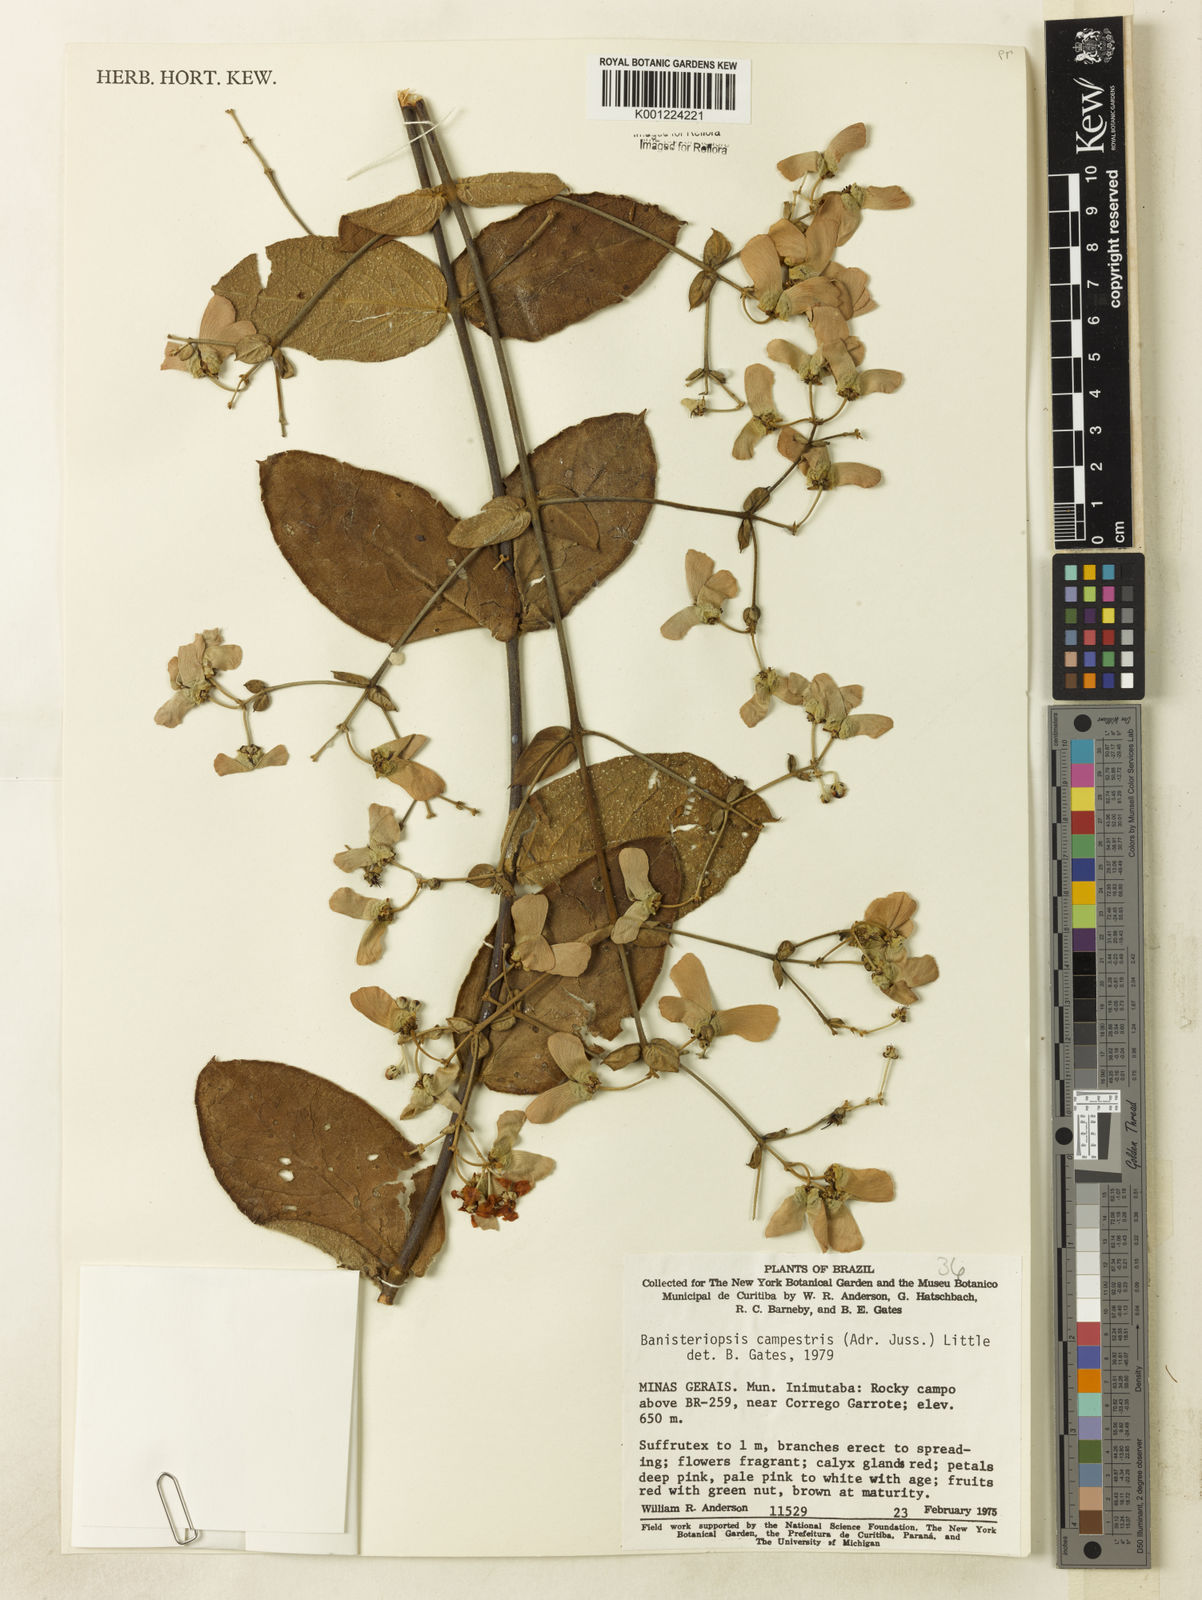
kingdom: Plantae
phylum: Tracheophyta
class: Magnoliopsida
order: Malpighiales
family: Malpighiaceae
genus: Banisteriopsis
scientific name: Banisteriopsis campestris
